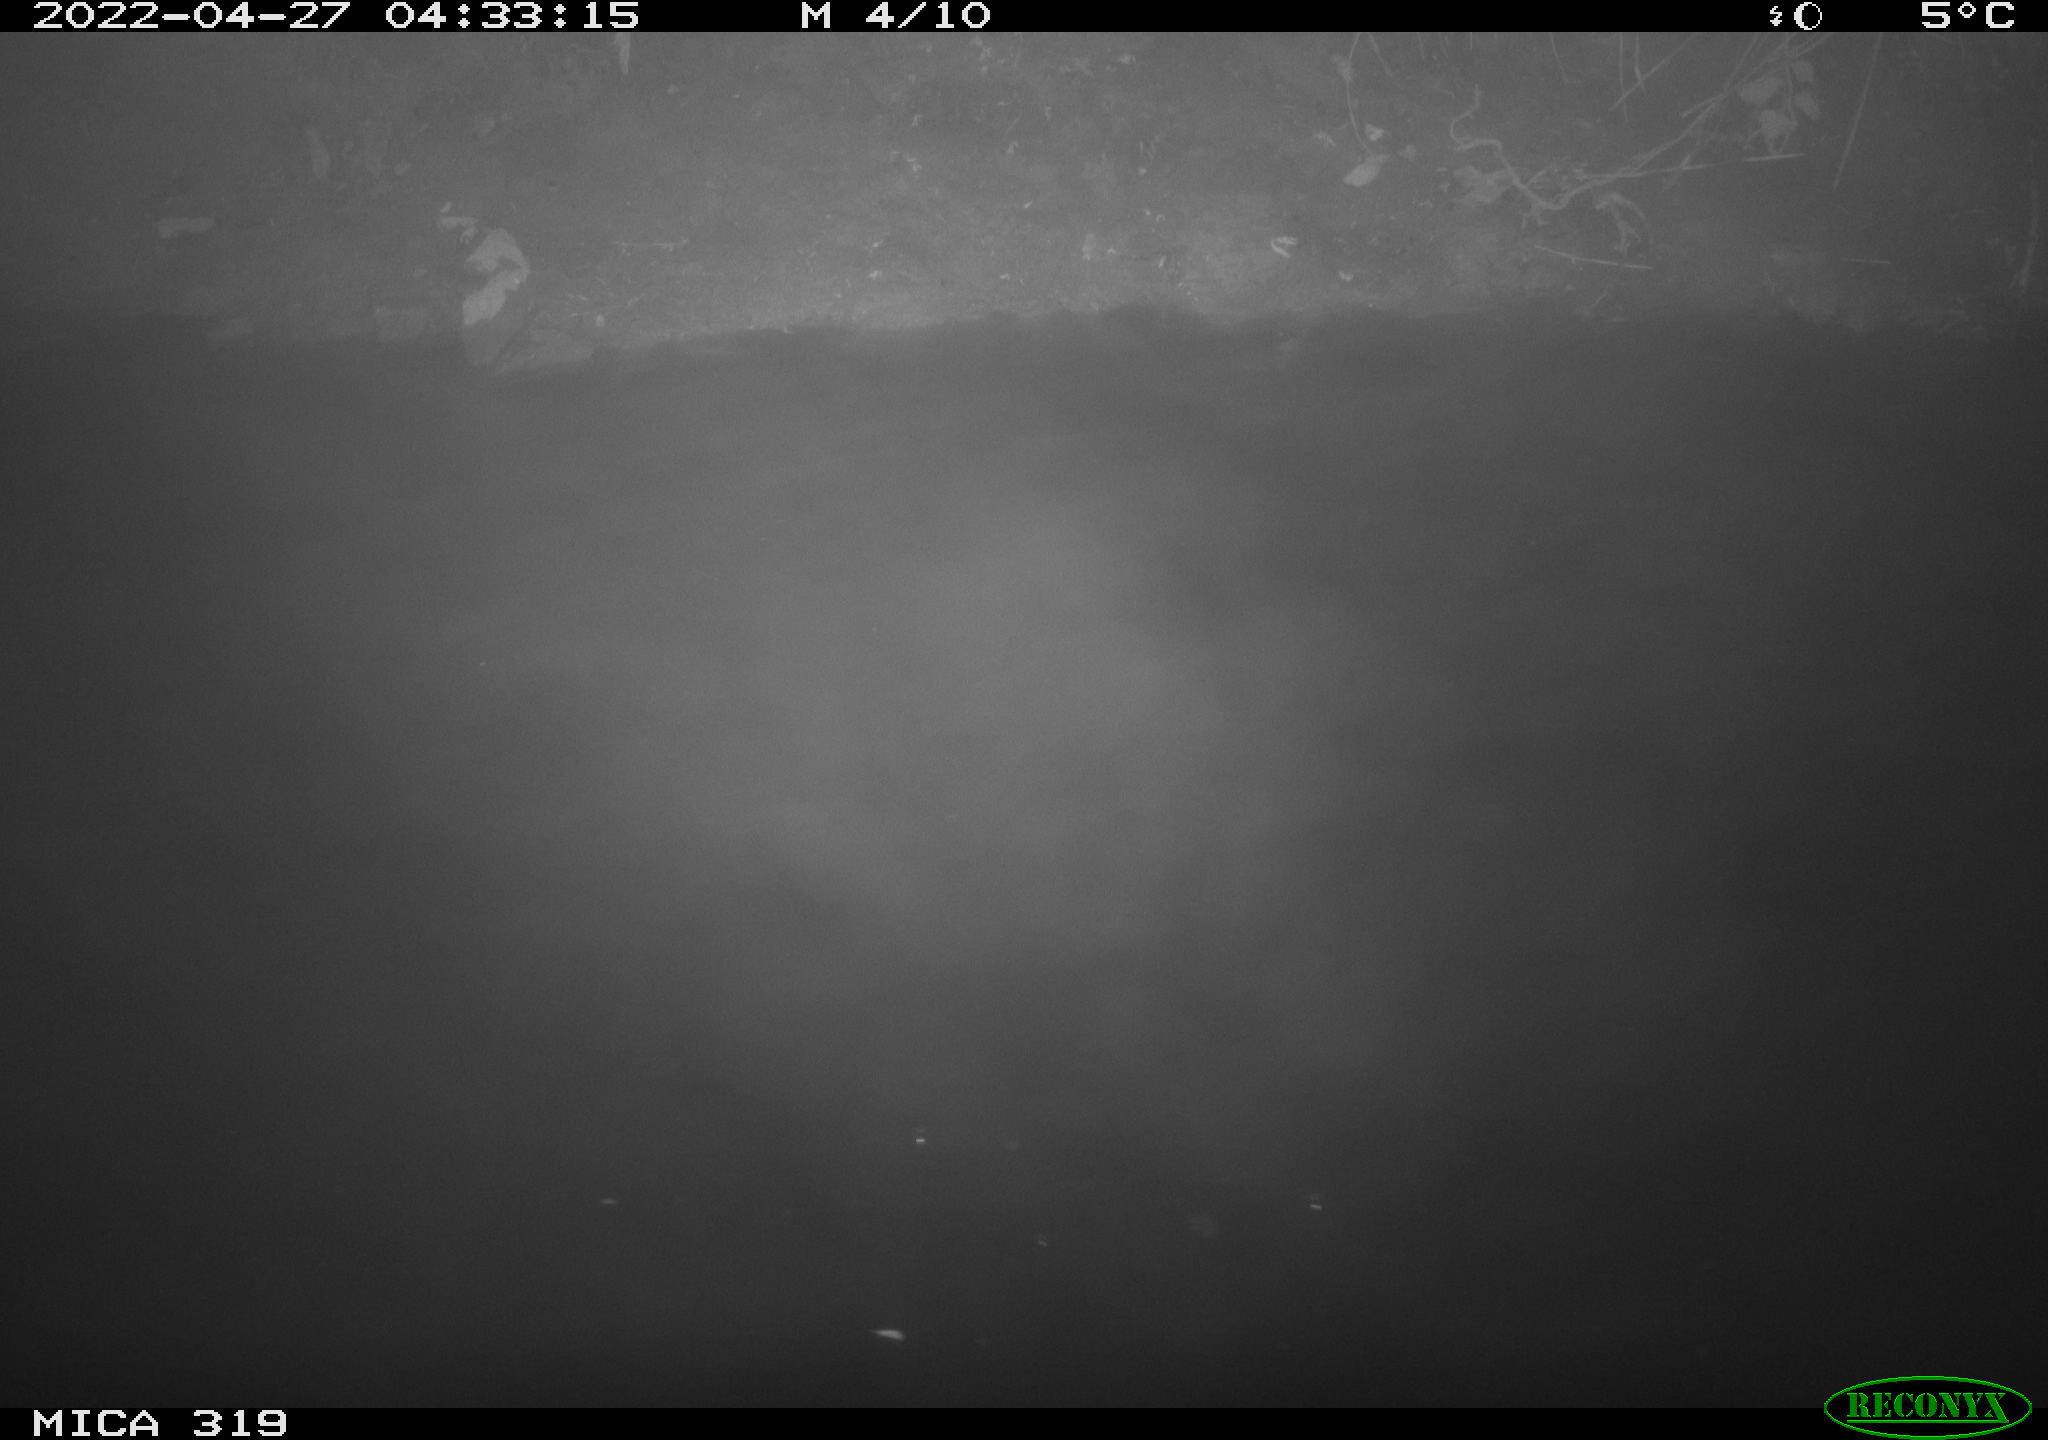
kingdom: Animalia
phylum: Chordata
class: Aves
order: Anseriformes
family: Anatidae
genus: Anas
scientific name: Anas platyrhynchos
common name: Mallard
